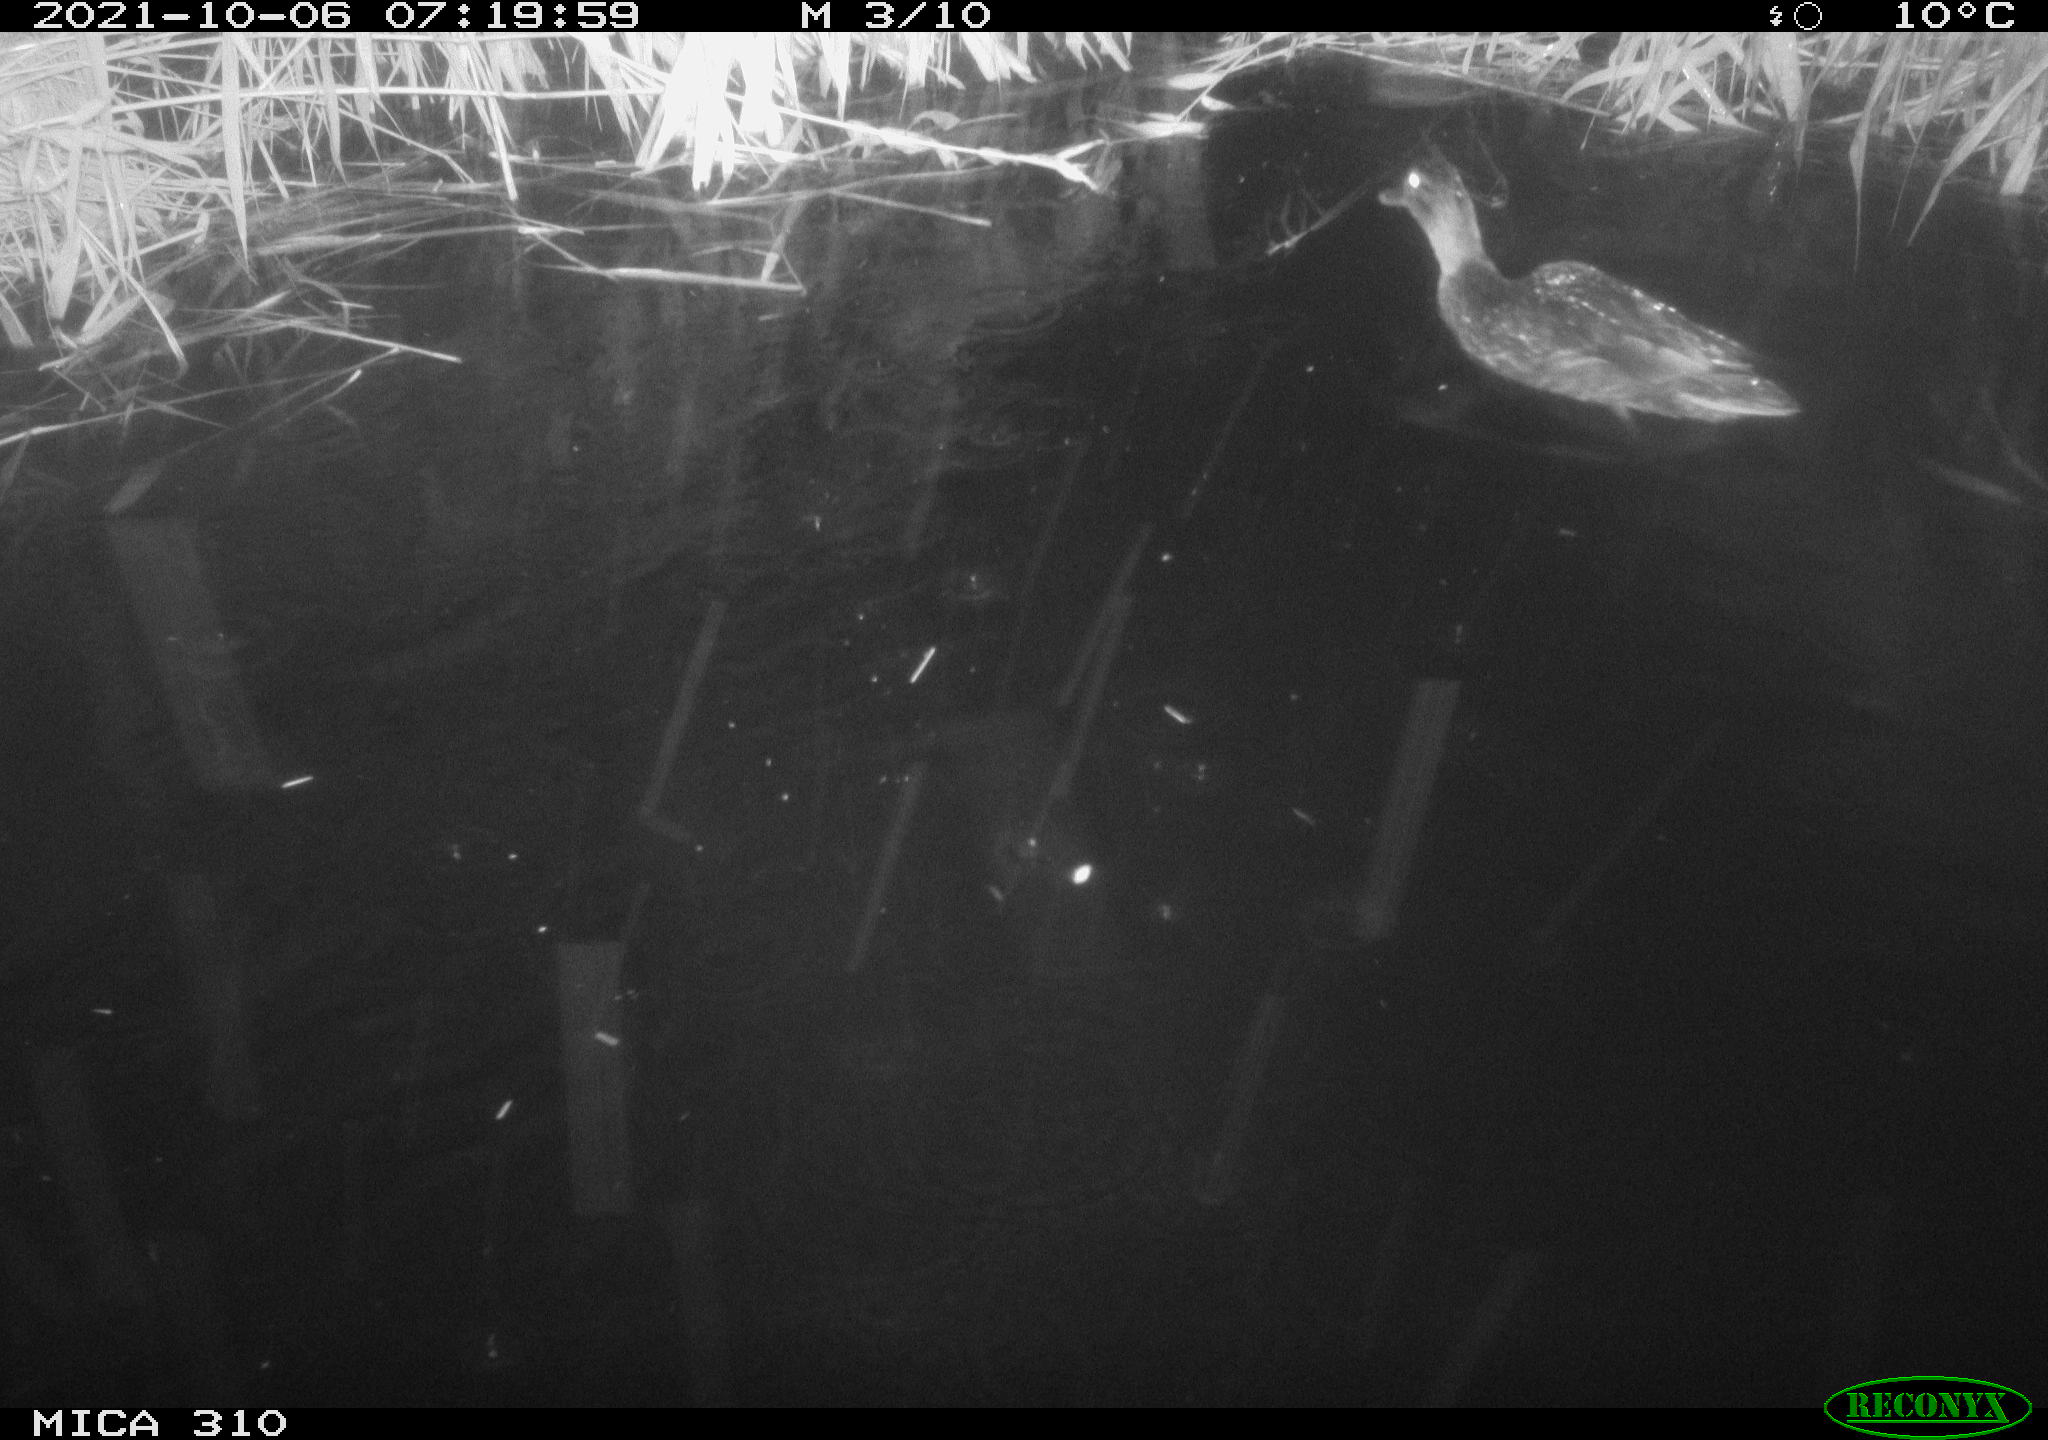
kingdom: Animalia
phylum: Chordata
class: Aves
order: Anseriformes
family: Anatidae
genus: Anas
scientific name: Anas platyrhynchos
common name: Mallard
